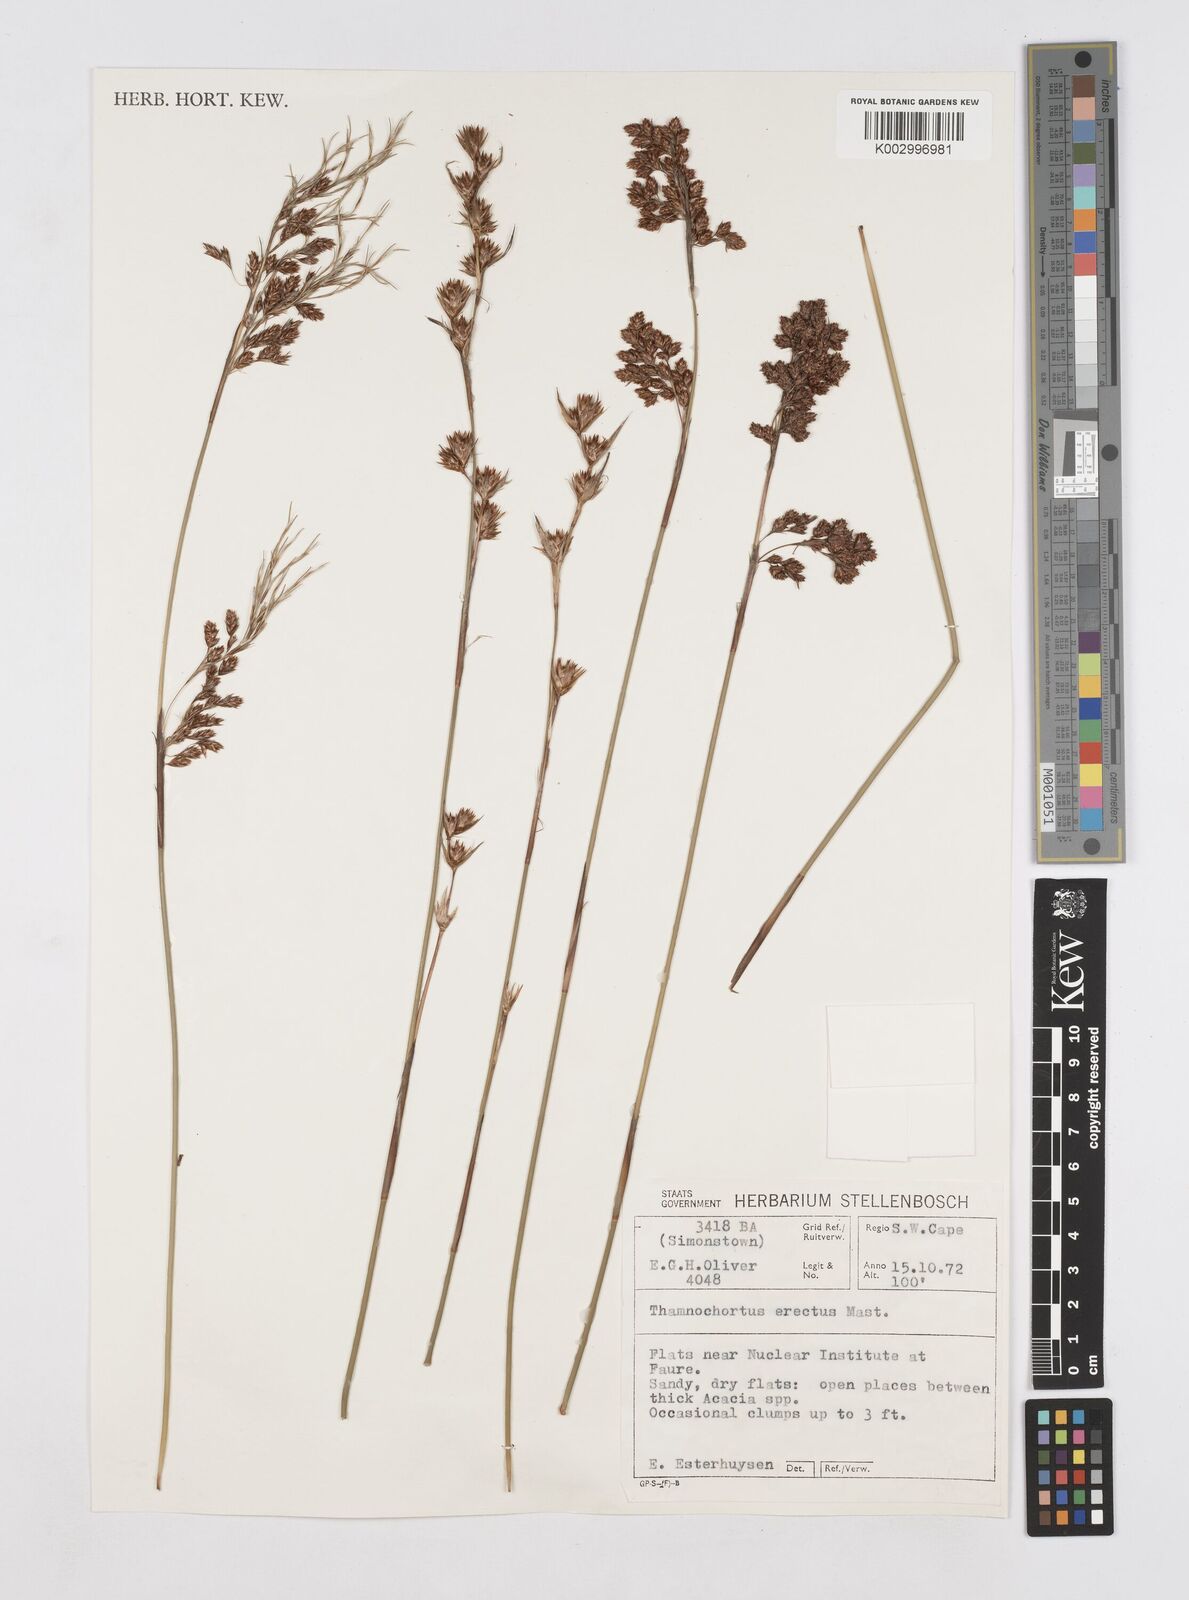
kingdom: Plantae
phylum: Tracheophyta
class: Liliopsida
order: Poales
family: Restionaceae
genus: Thamnochortus
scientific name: Thamnochortus erectus
